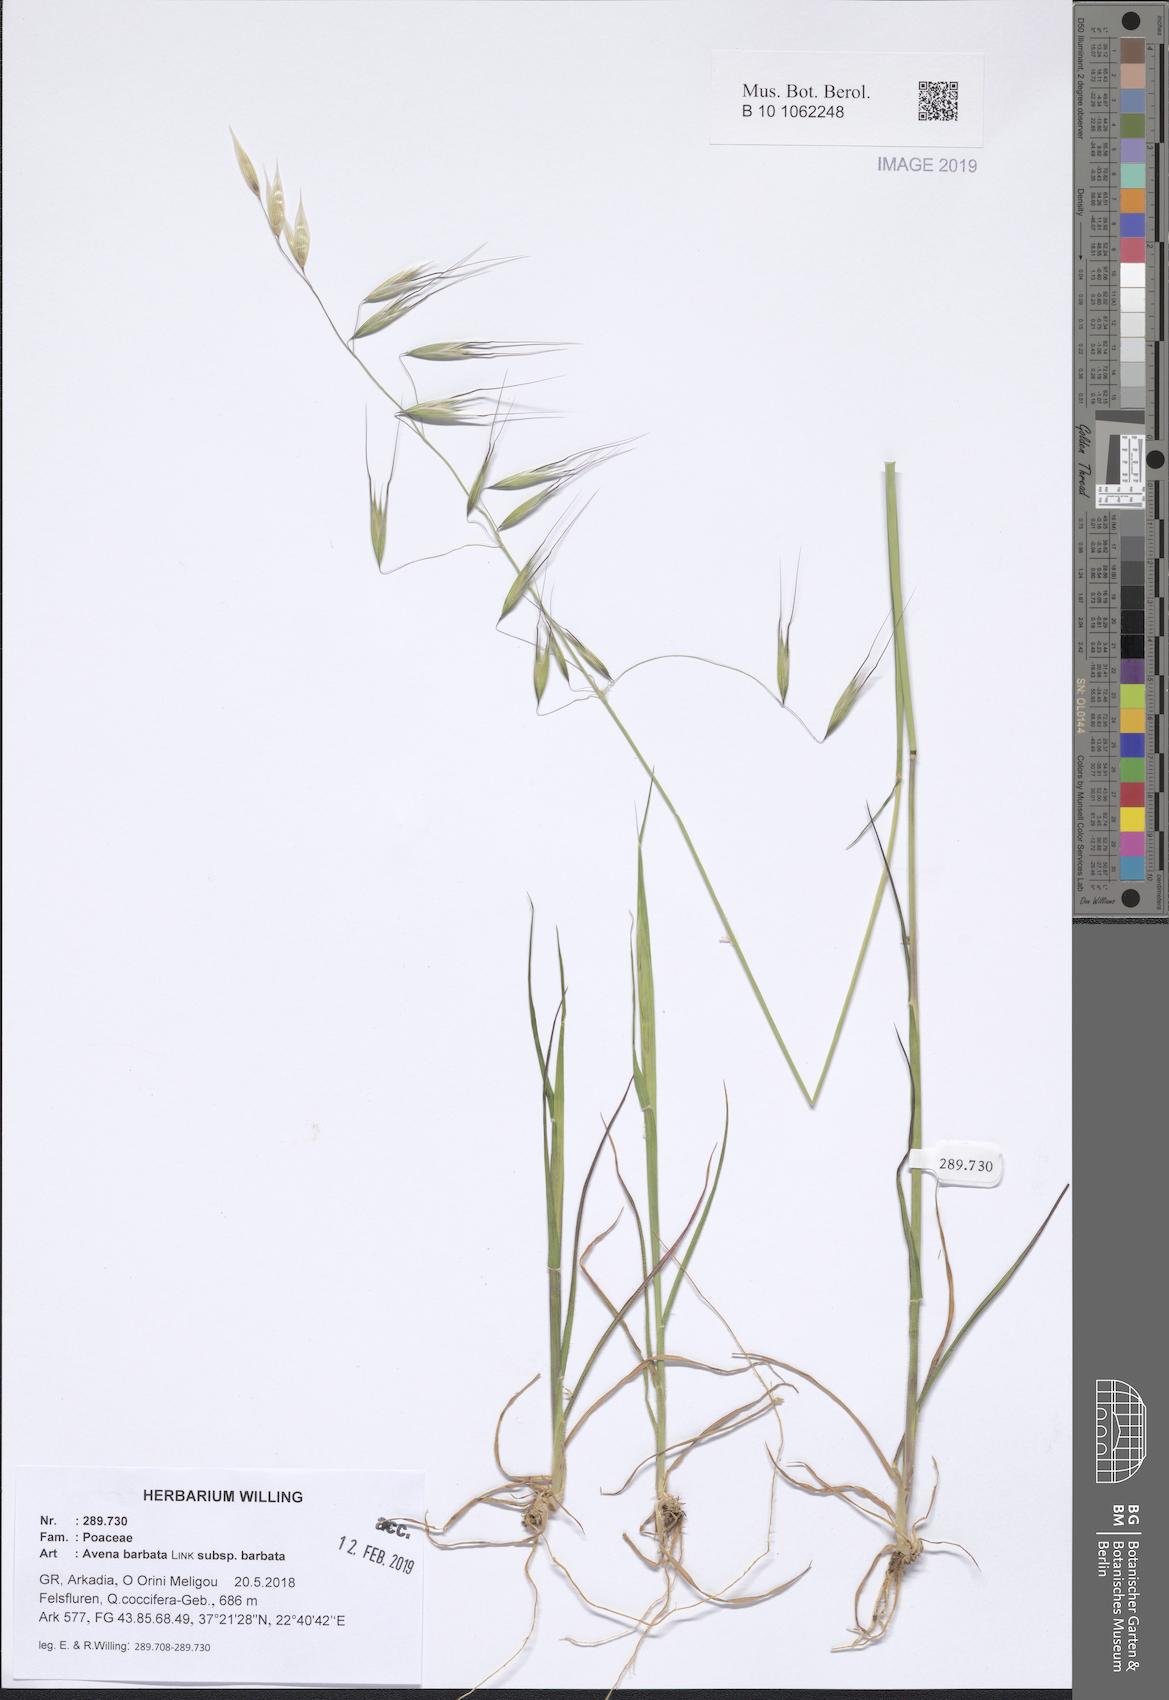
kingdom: Plantae
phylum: Tracheophyta
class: Liliopsida
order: Poales
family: Poaceae
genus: Avena
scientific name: Avena barbata
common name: Slender oat
